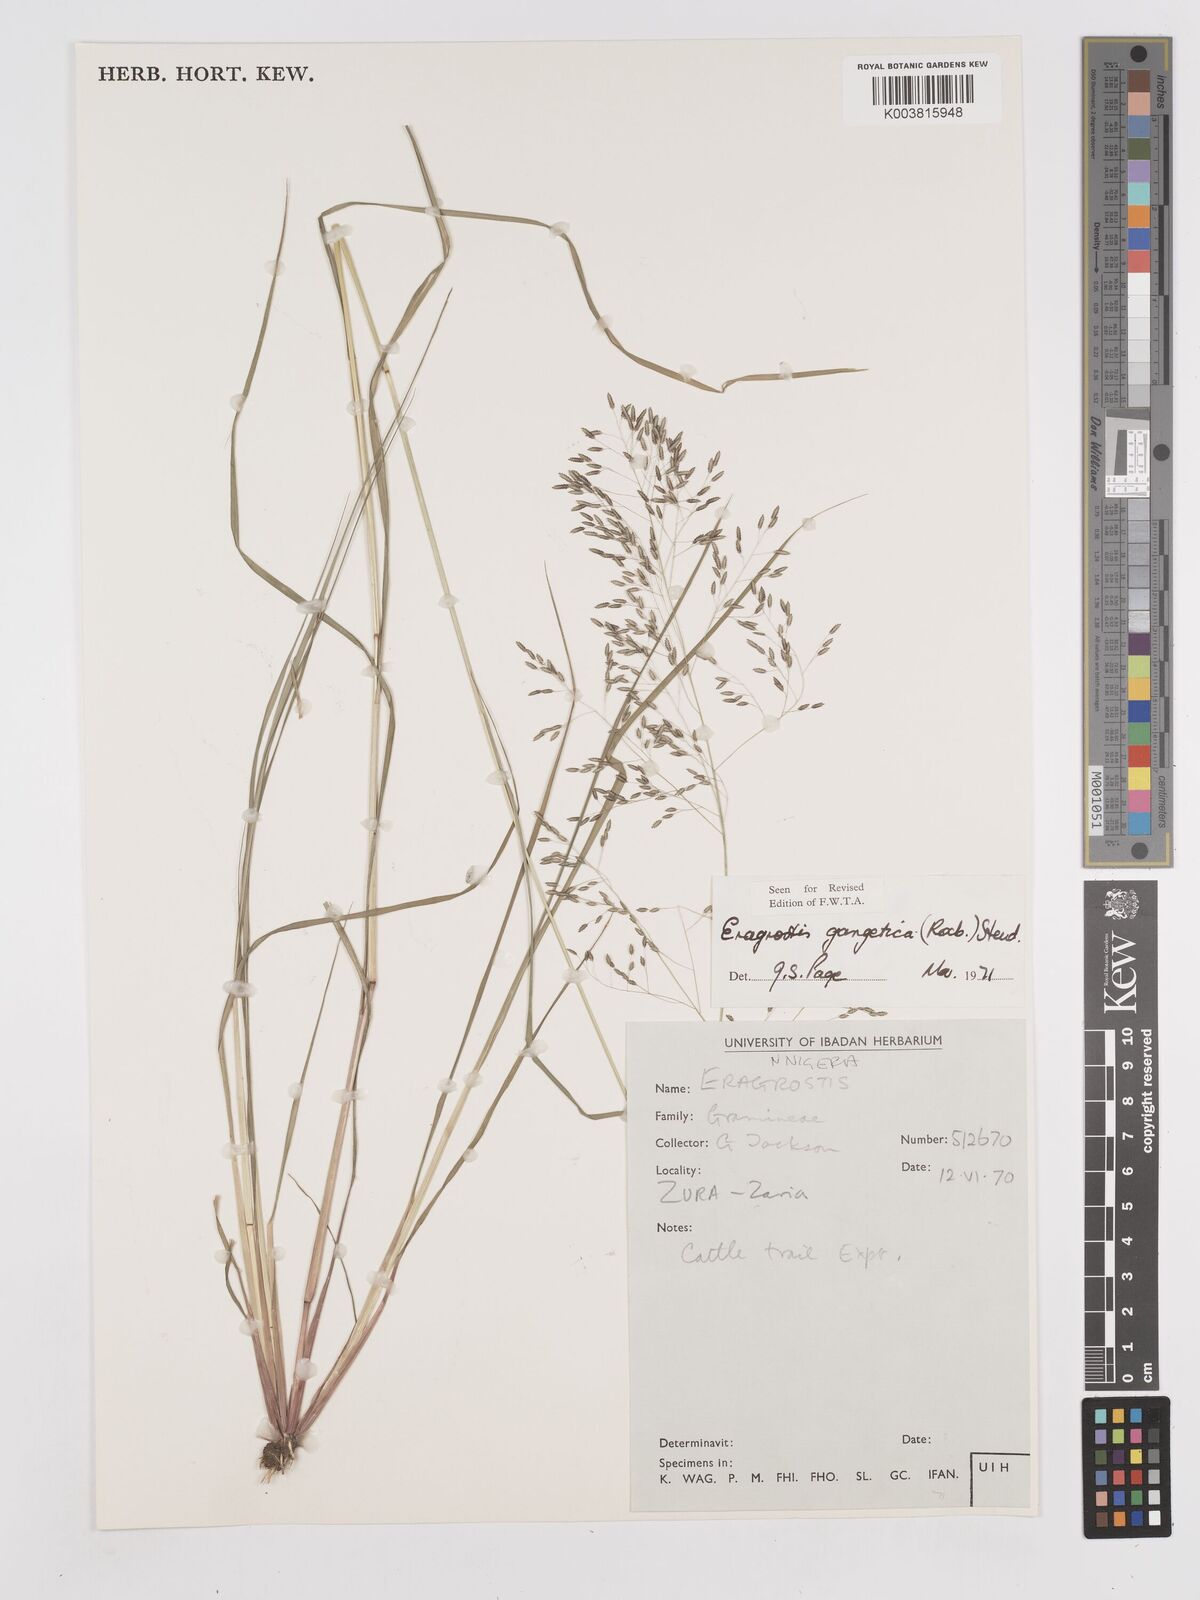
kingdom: Plantae
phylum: Tracheophyta
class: Liliopsida
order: Poales
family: Poaceae
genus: Eragrostis
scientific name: Eragrostis gangetica
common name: Slimflower lovegrass
